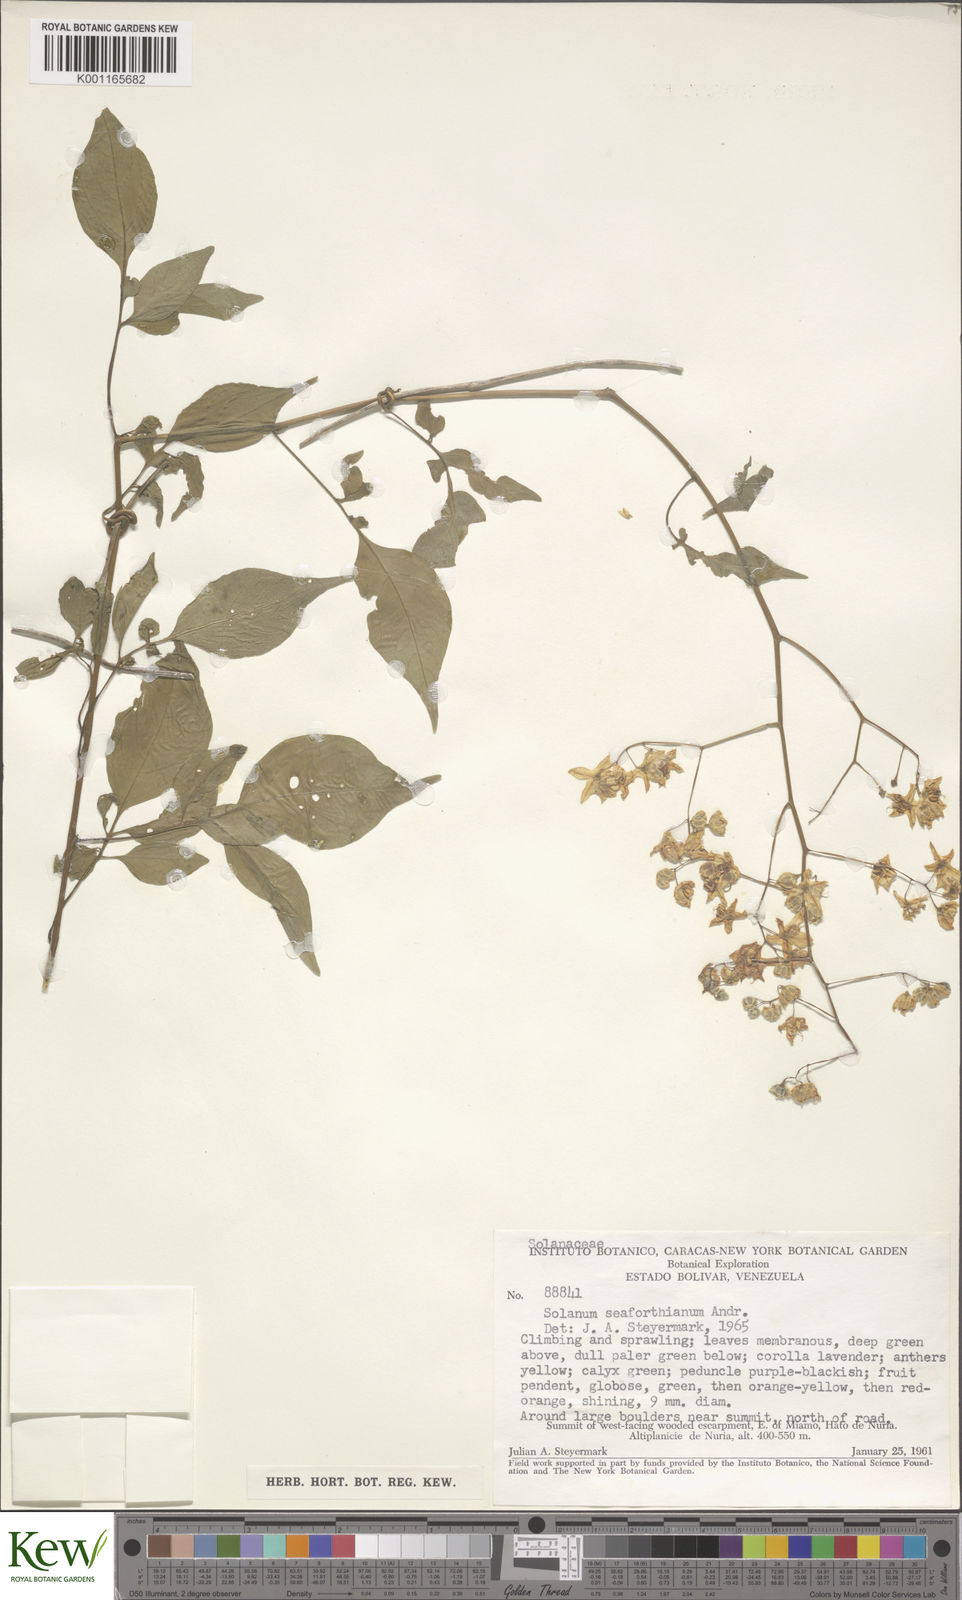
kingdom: Plantae
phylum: Tracheophyta
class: Magnoliopsida
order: Solanales
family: Solanaceae
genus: Solanum
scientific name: Solanum seaforthianum
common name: Brazilian nightshade
